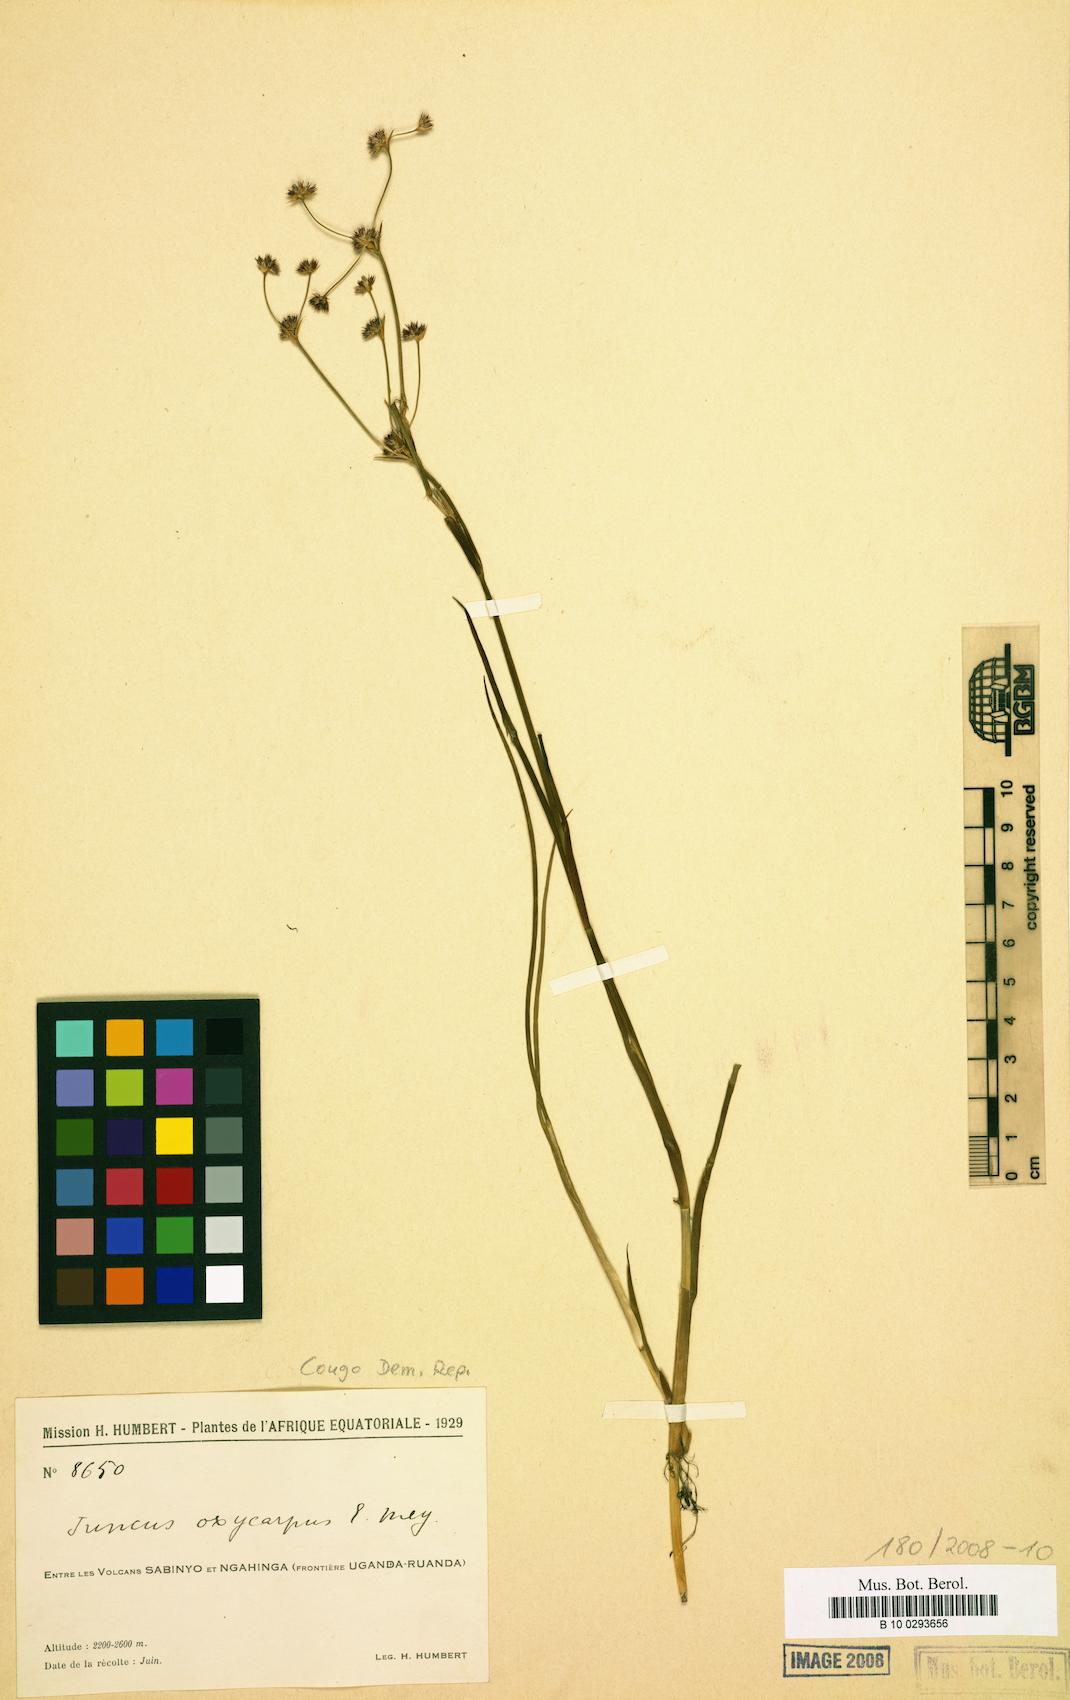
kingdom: Plantae
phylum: Tracheophyta
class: Liliopsida
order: Poales
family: Juncaceae
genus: Juncus
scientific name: Juncus oxycarpus
